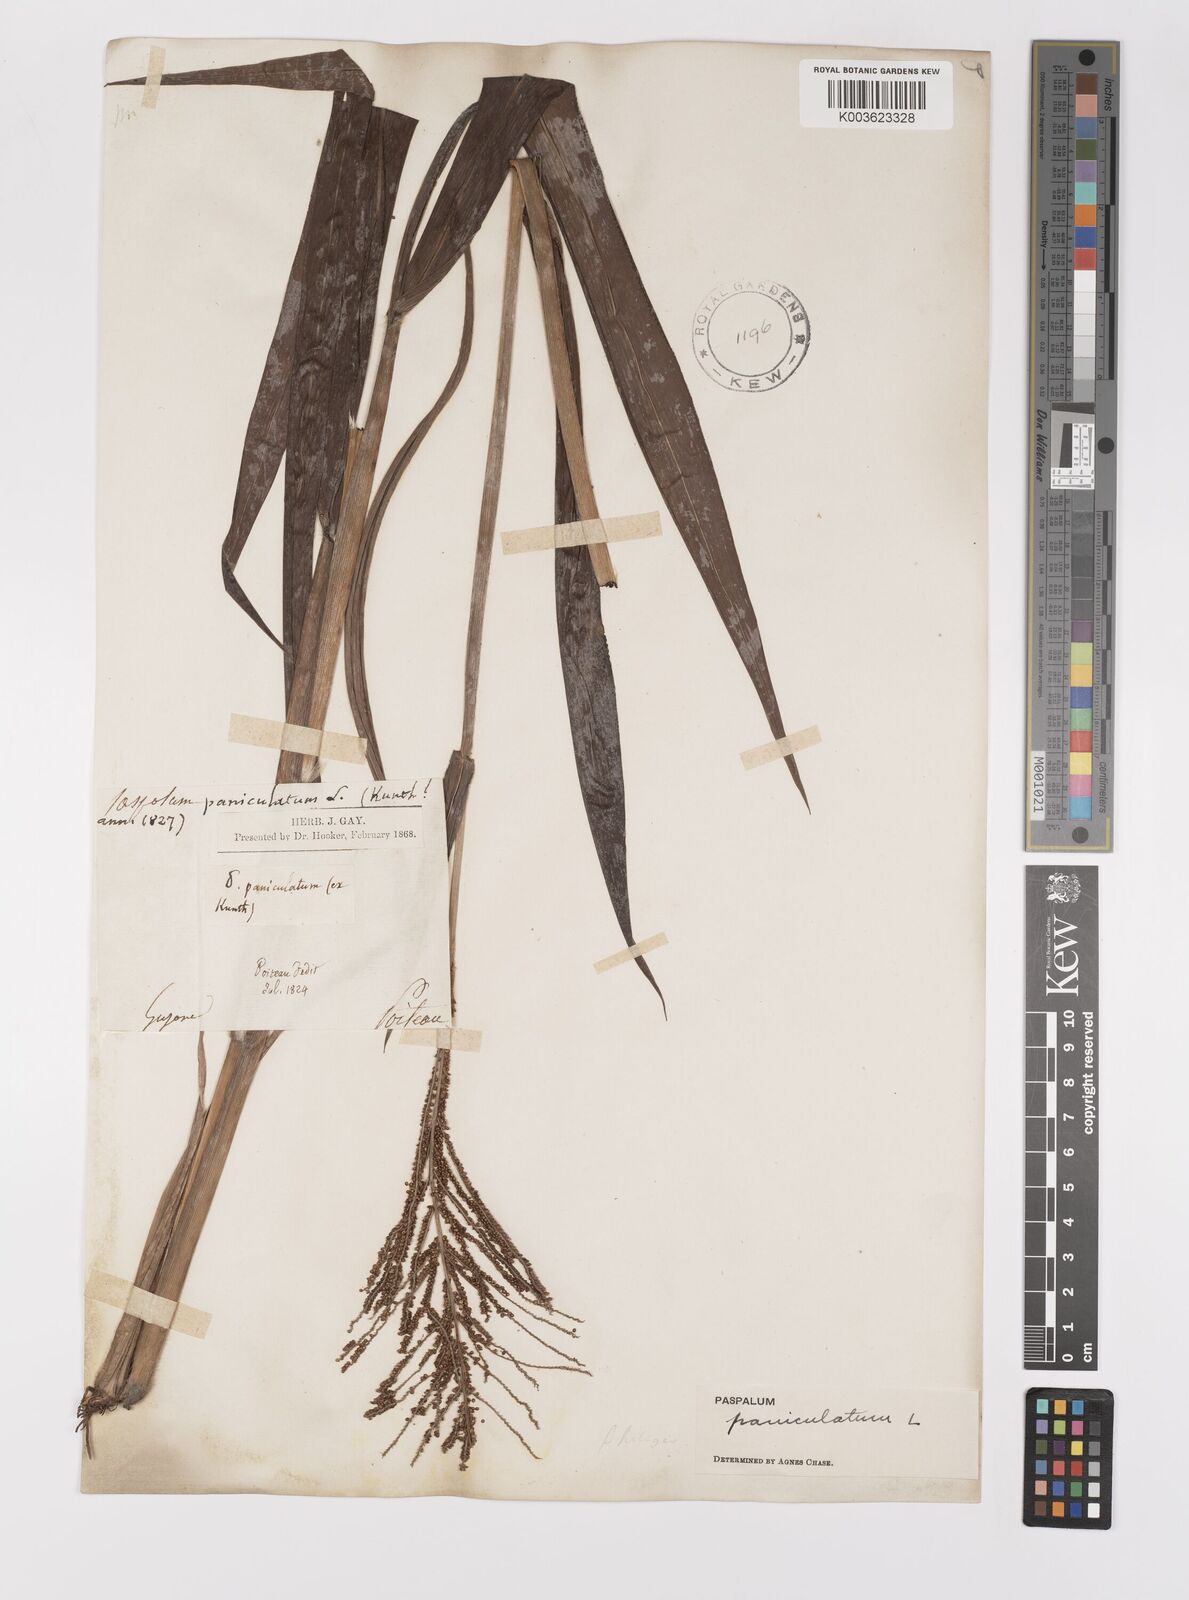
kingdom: Plantae
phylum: Tracheophyta
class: Liliopsida
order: Poales
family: Poaceae
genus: Paspalum
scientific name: Paspalum paniculatum
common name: Arrocillo
